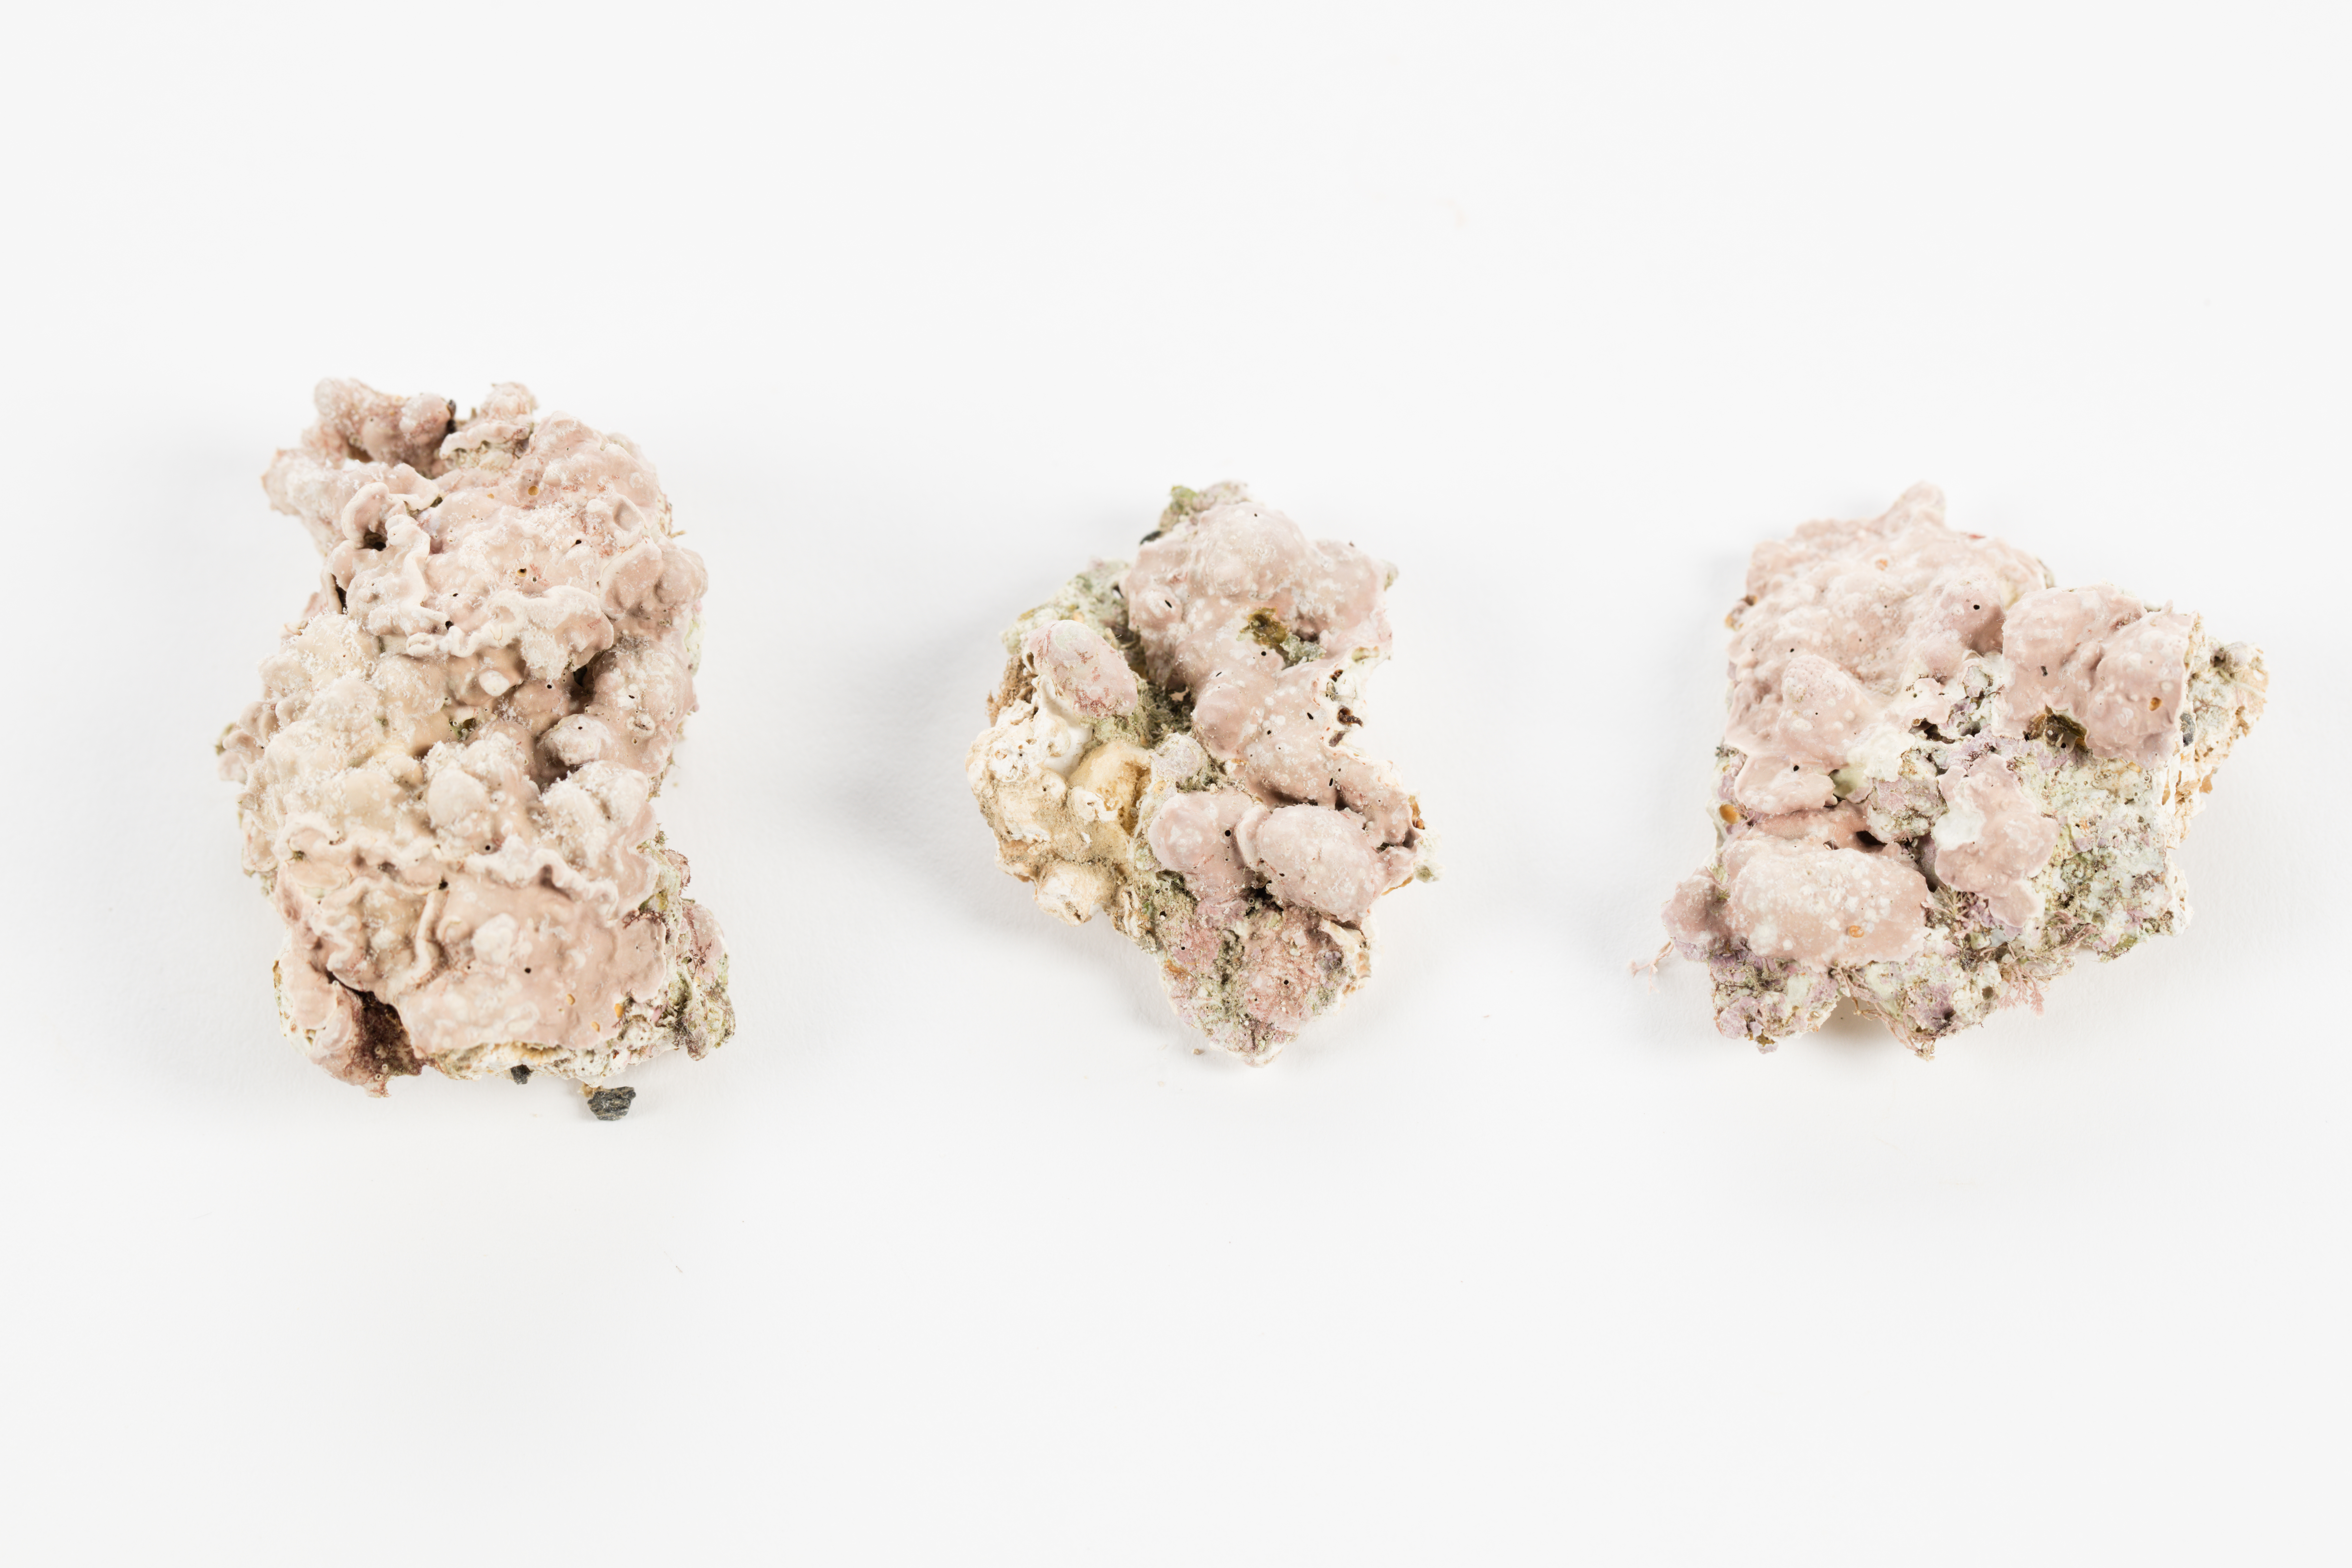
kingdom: Plantae
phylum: Rhodophyta
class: Florideophyceae
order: Corallinales
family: Lithophyllaceae
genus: Titanoderma
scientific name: Titanoderma conspectum
